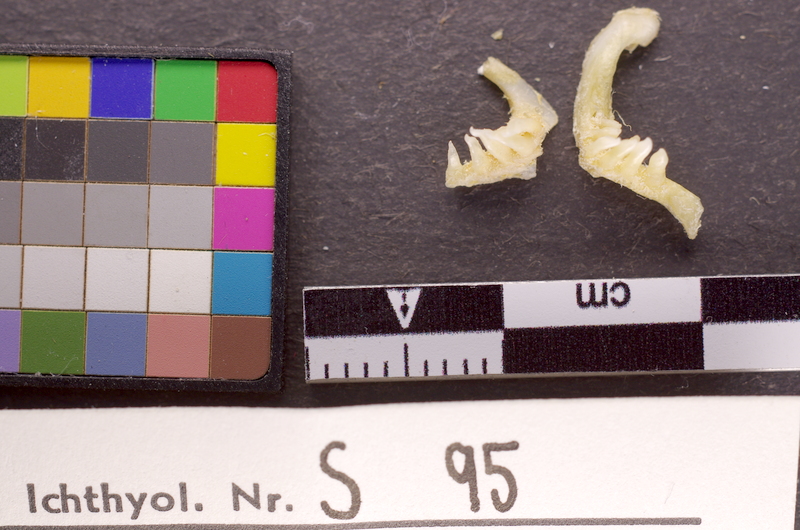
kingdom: Animalia
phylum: Chordata
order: Cypriniformes
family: Cyprinidae
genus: Alburnus
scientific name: Alburnus tarichi
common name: Tarek
